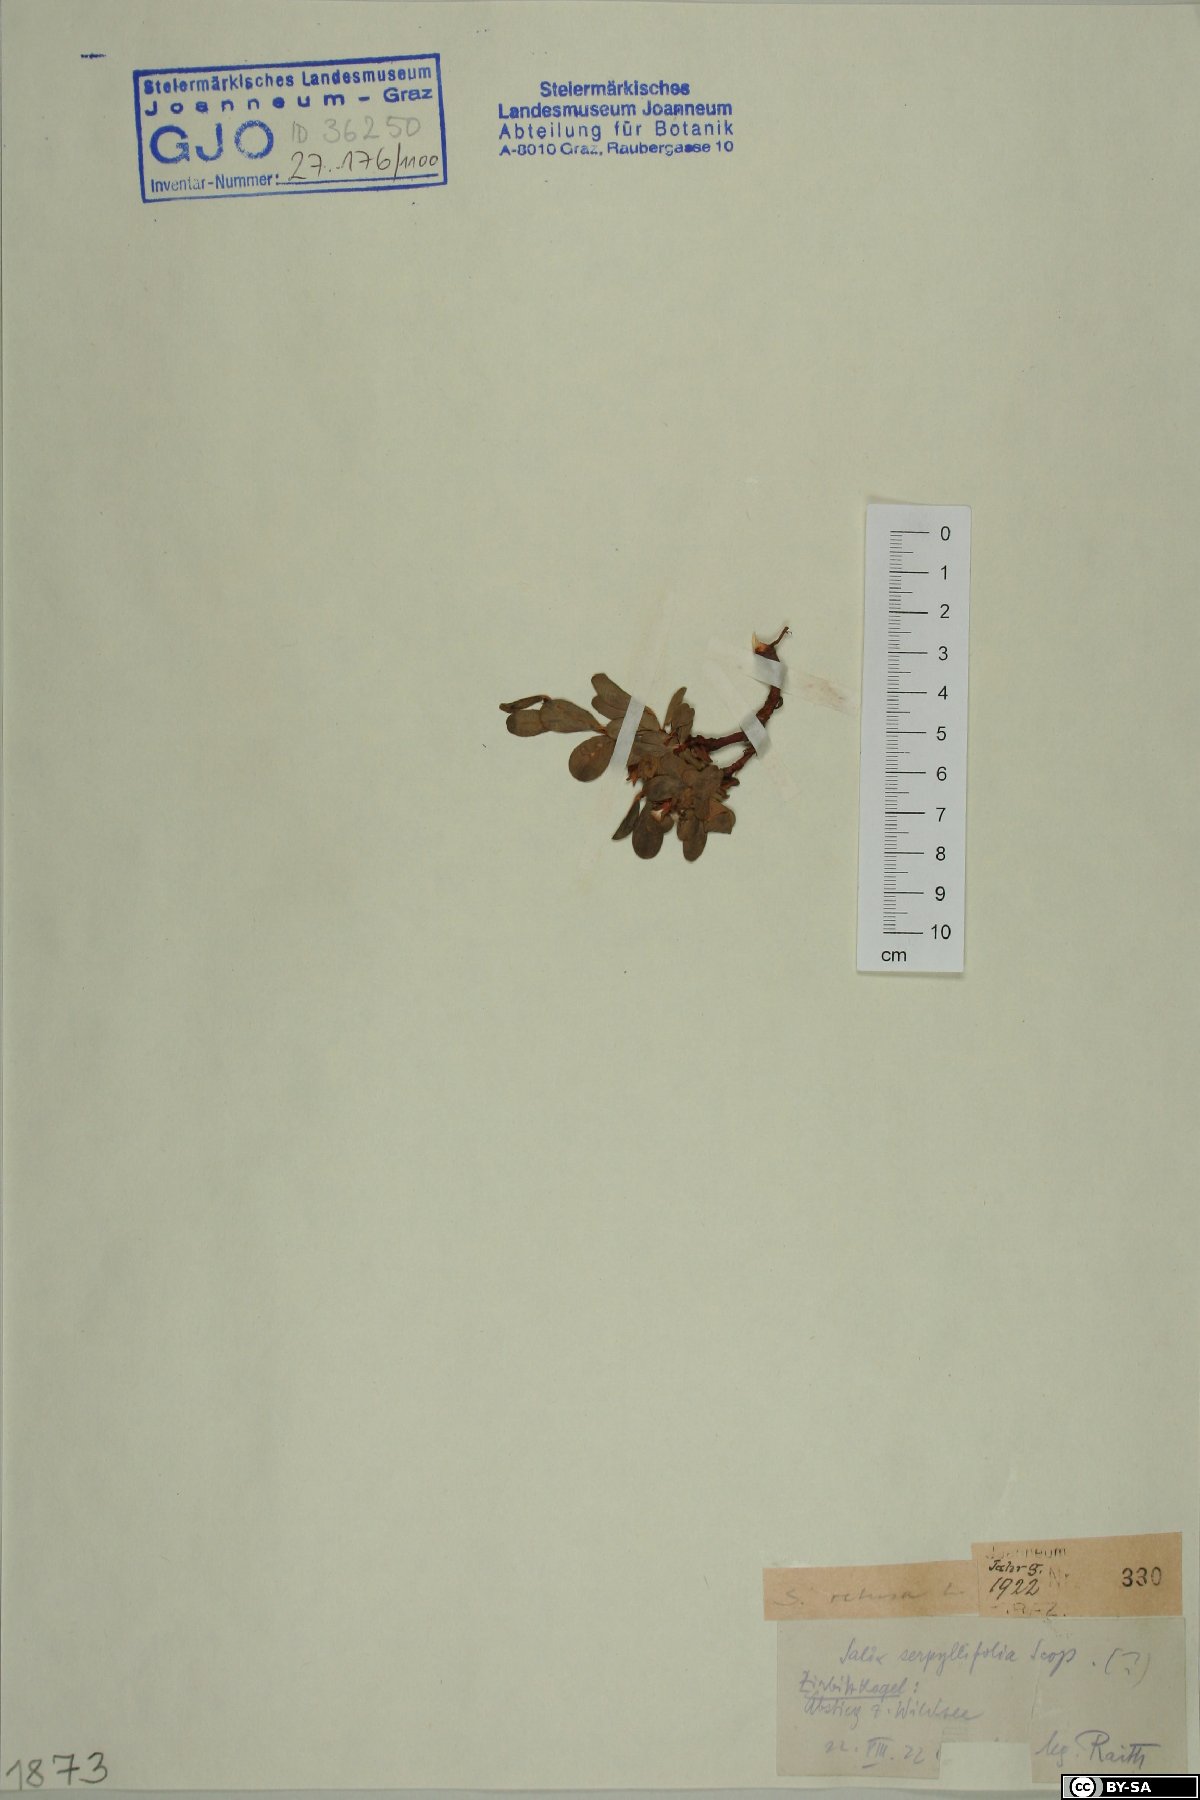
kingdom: Plantae
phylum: Tracheophyta
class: Magnoliopsida
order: Malpighiales
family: Salicaceae
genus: Salix
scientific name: Salix retusa
